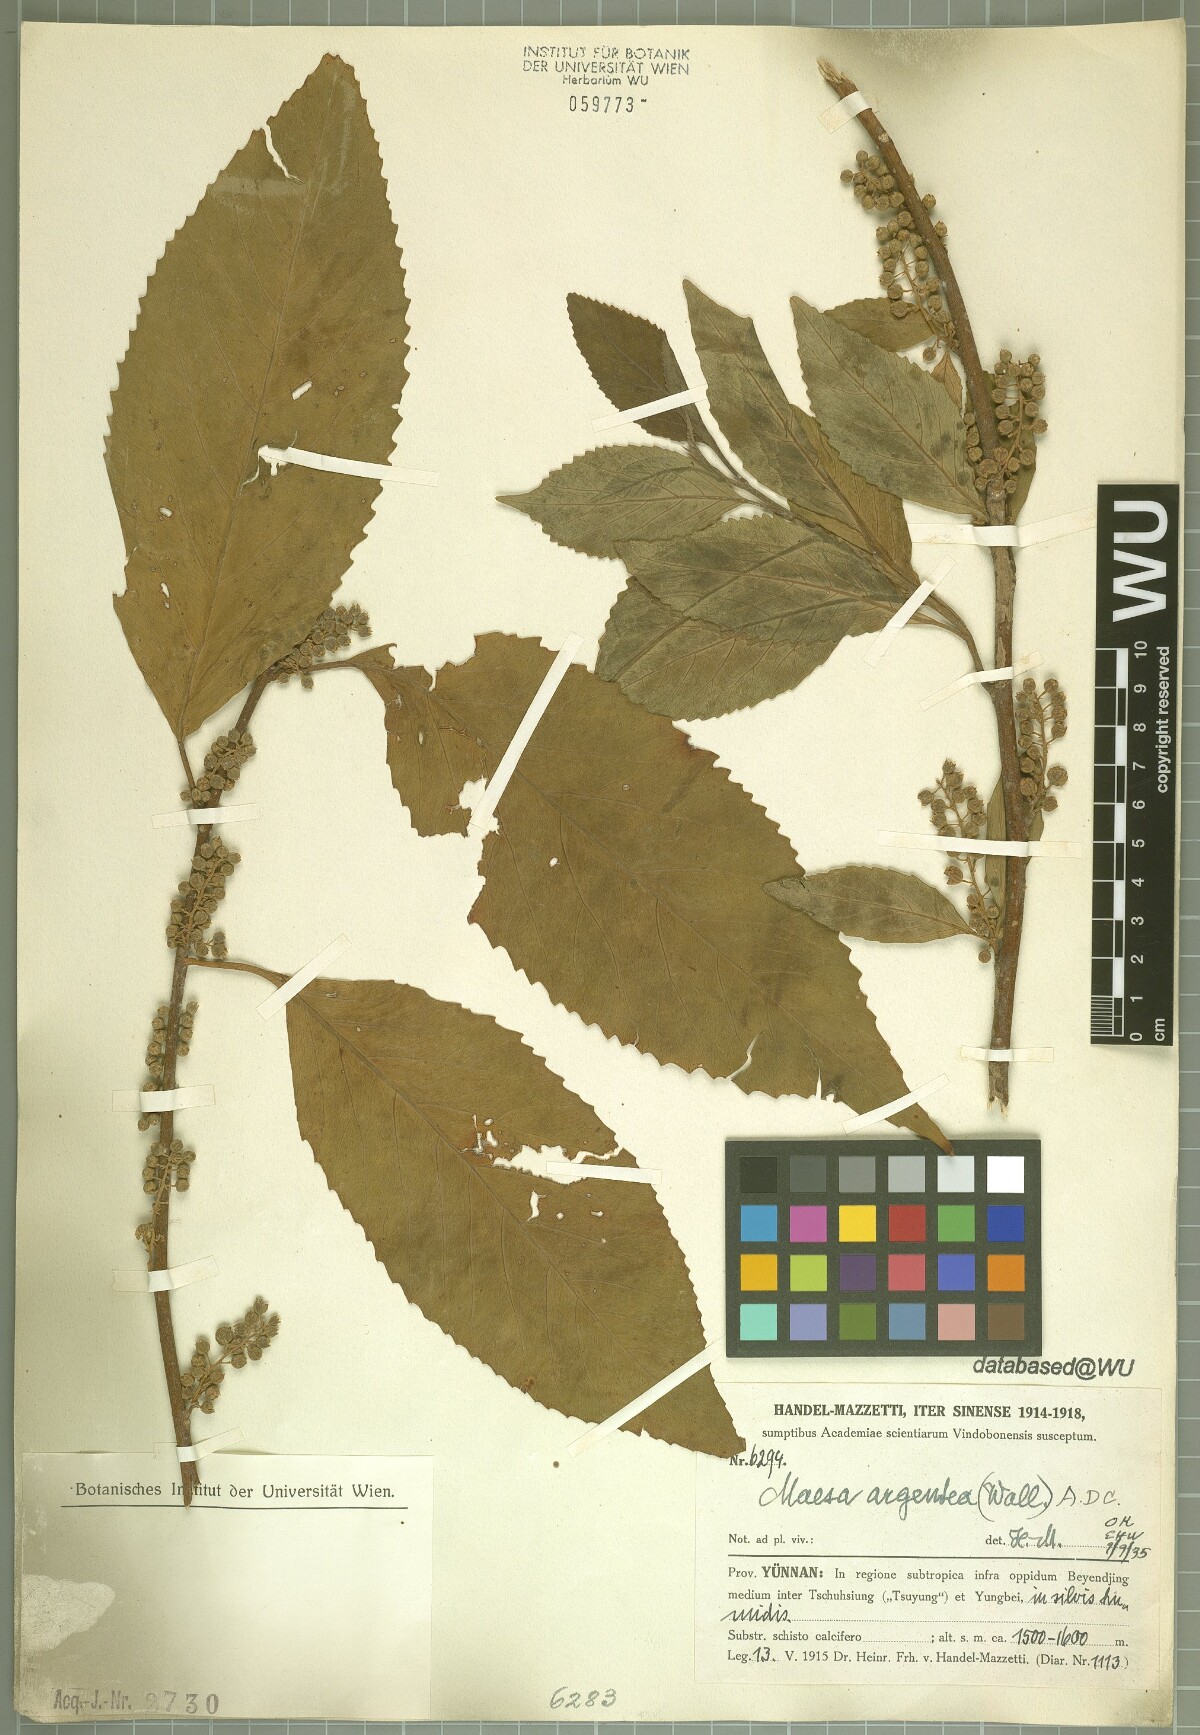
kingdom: Plantae
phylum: Tracheophyta
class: Magnoliopsida
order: Ericales
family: Primulaceae
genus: Maesa
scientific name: Maesa argentea
